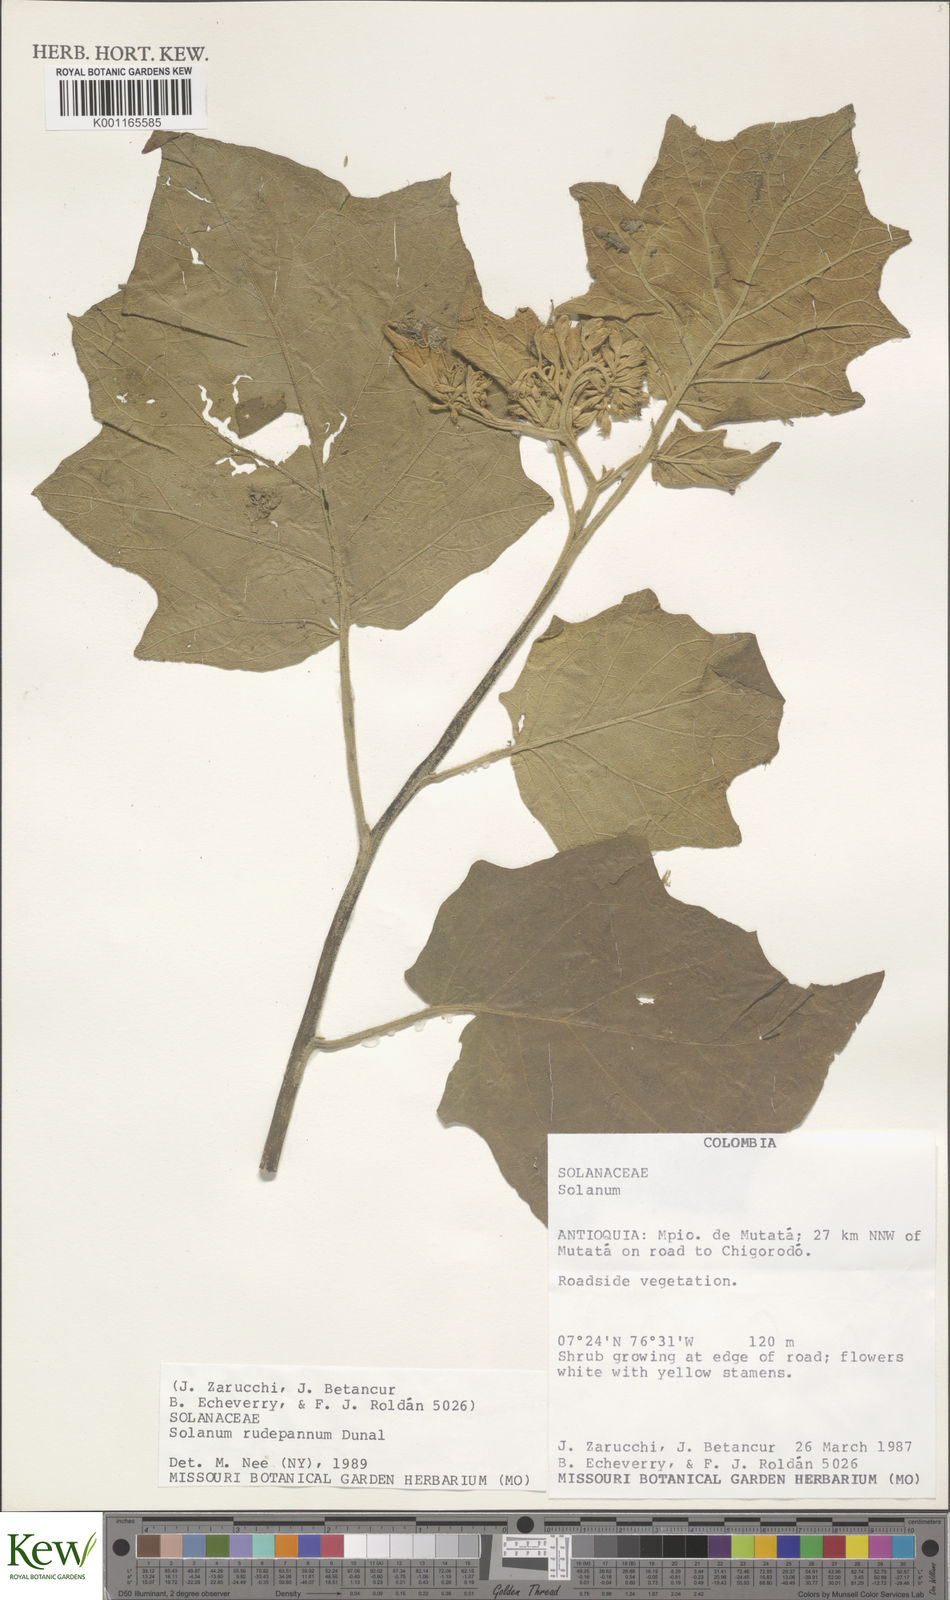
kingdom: Plantae
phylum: Tracheophyta
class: Magnoliopsida
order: Solanales
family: Solanaceae
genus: Solanum
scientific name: Solanum rude-pannum
